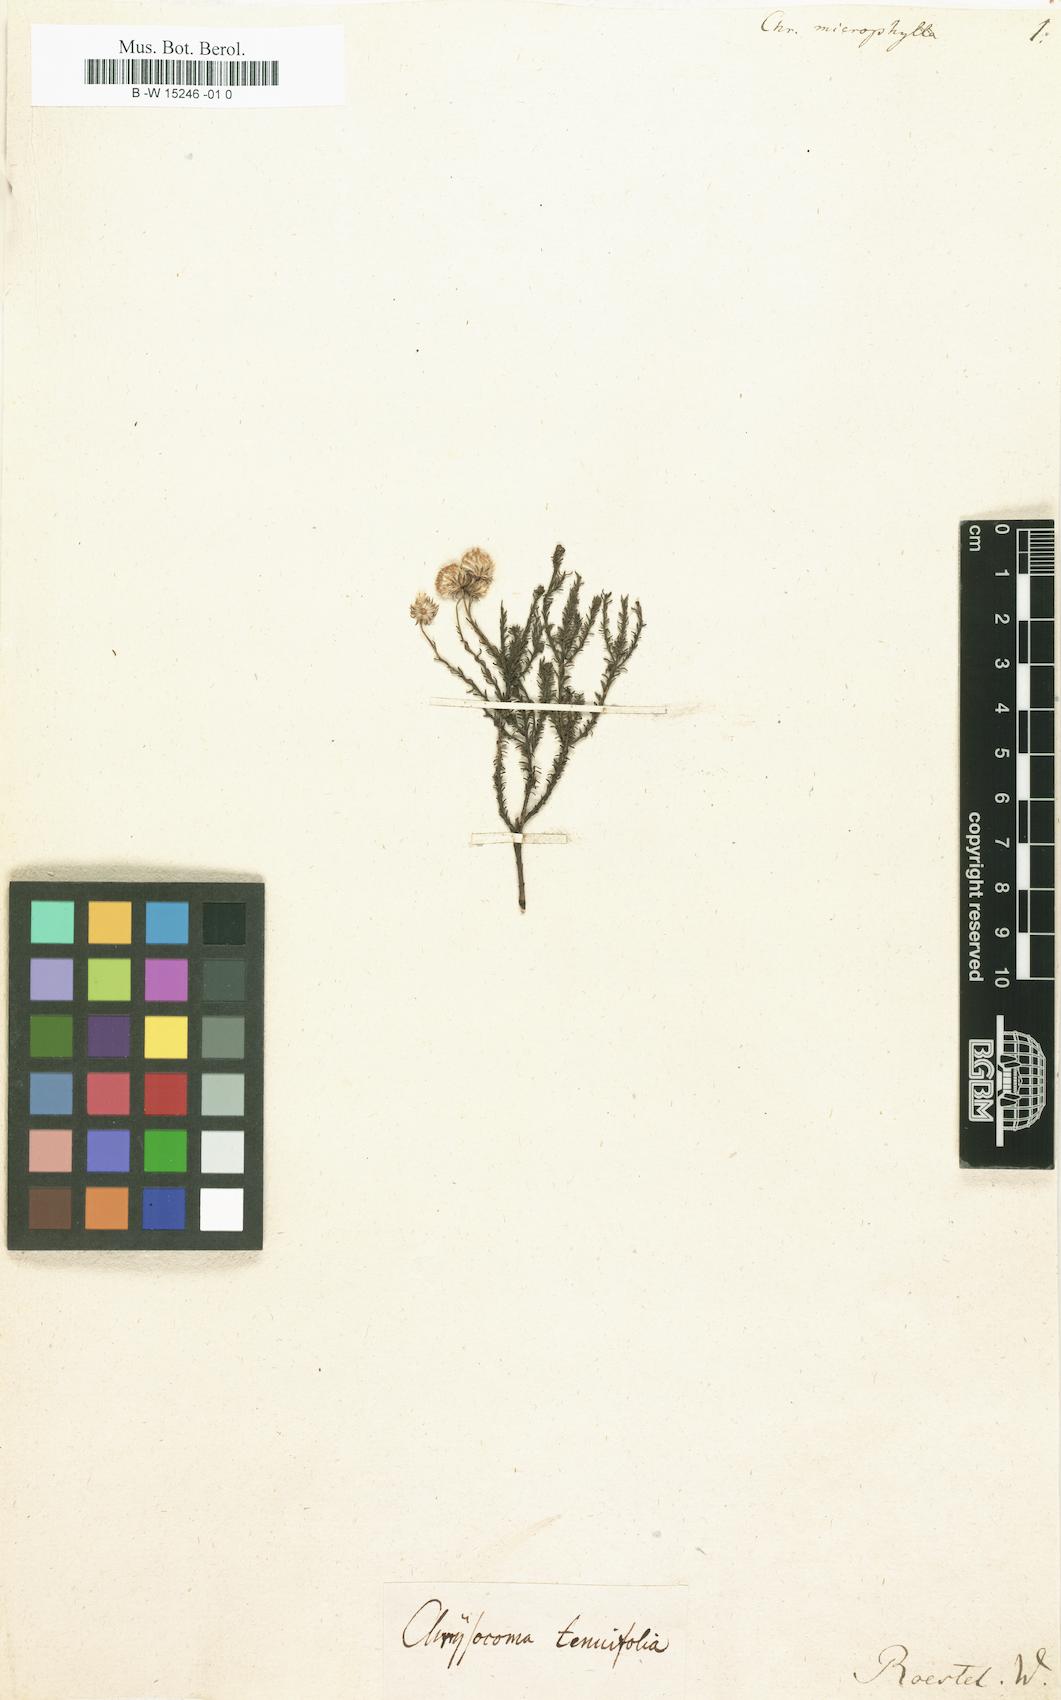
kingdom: Plantae
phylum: Tracheophyta
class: Magnoliopsida
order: Asterales
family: Asteraceae
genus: Chrysocoma
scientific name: Chrysocoma microphylla
